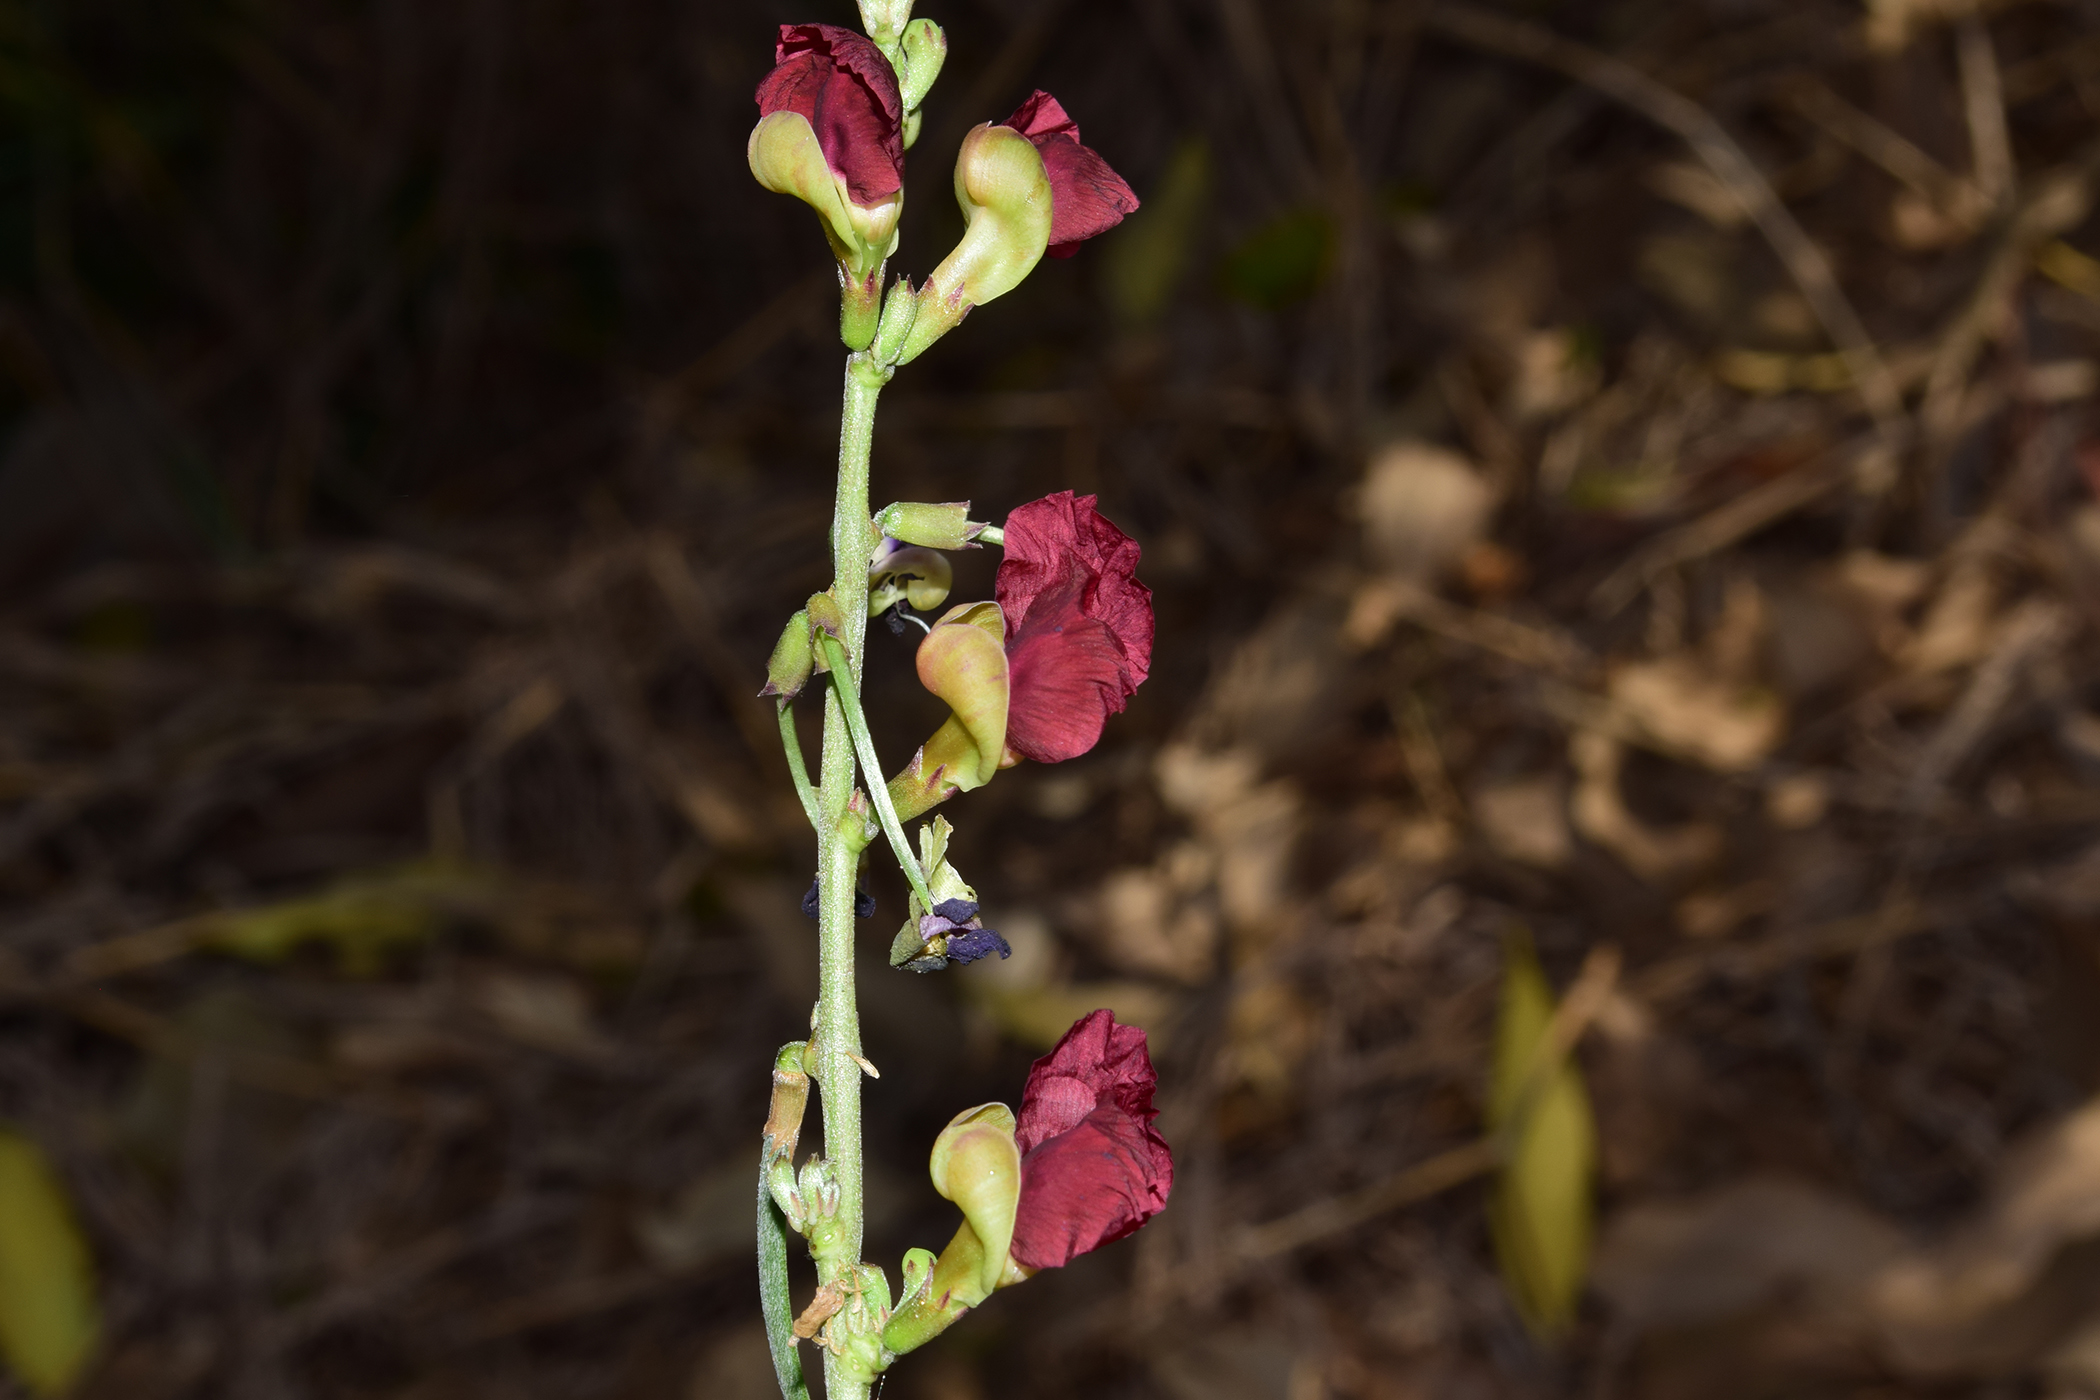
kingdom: Plantae
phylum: Tracheophyta
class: Magnoliopsida
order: Fabales
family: Fabaceae
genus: Macroptilium
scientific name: Macroptilium lathyroides
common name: Wild bushbean
